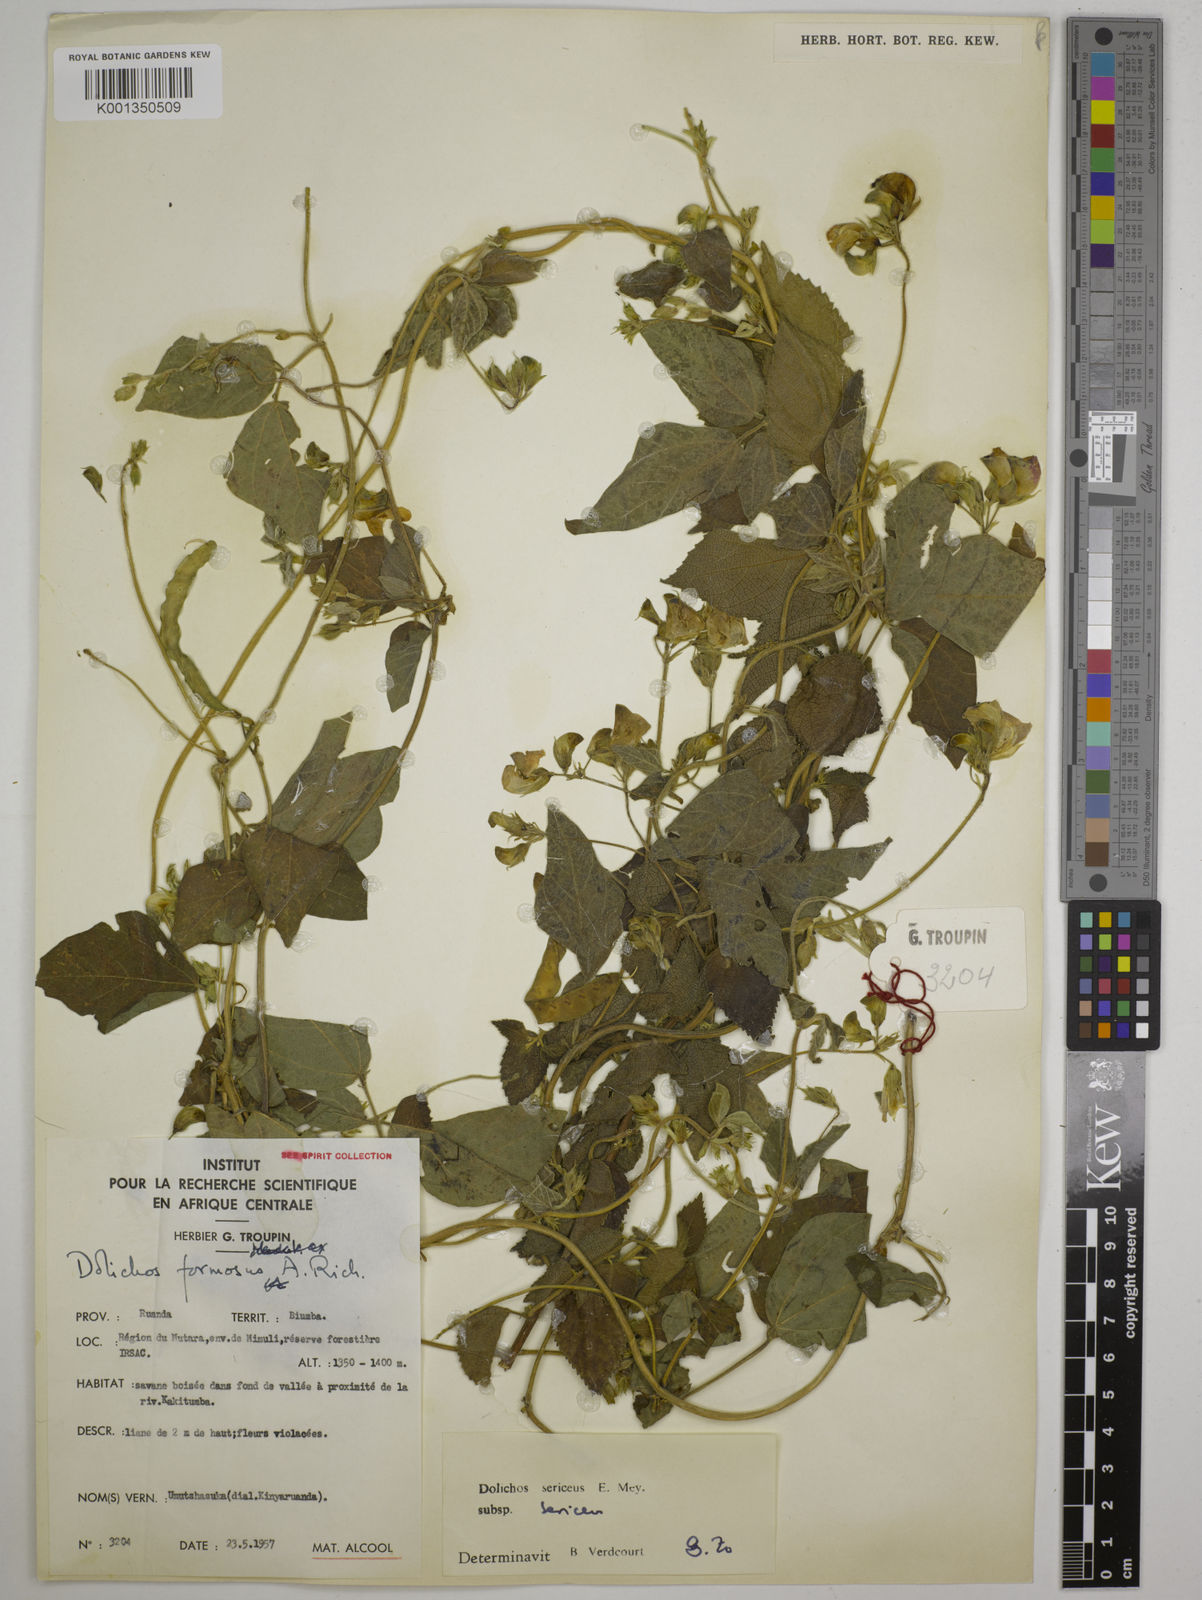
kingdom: Plantae
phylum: Tracheophyta
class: Magnoliopsida
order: Fabales
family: Fabaceae
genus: Dolichos
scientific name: Dolichos sericeus
